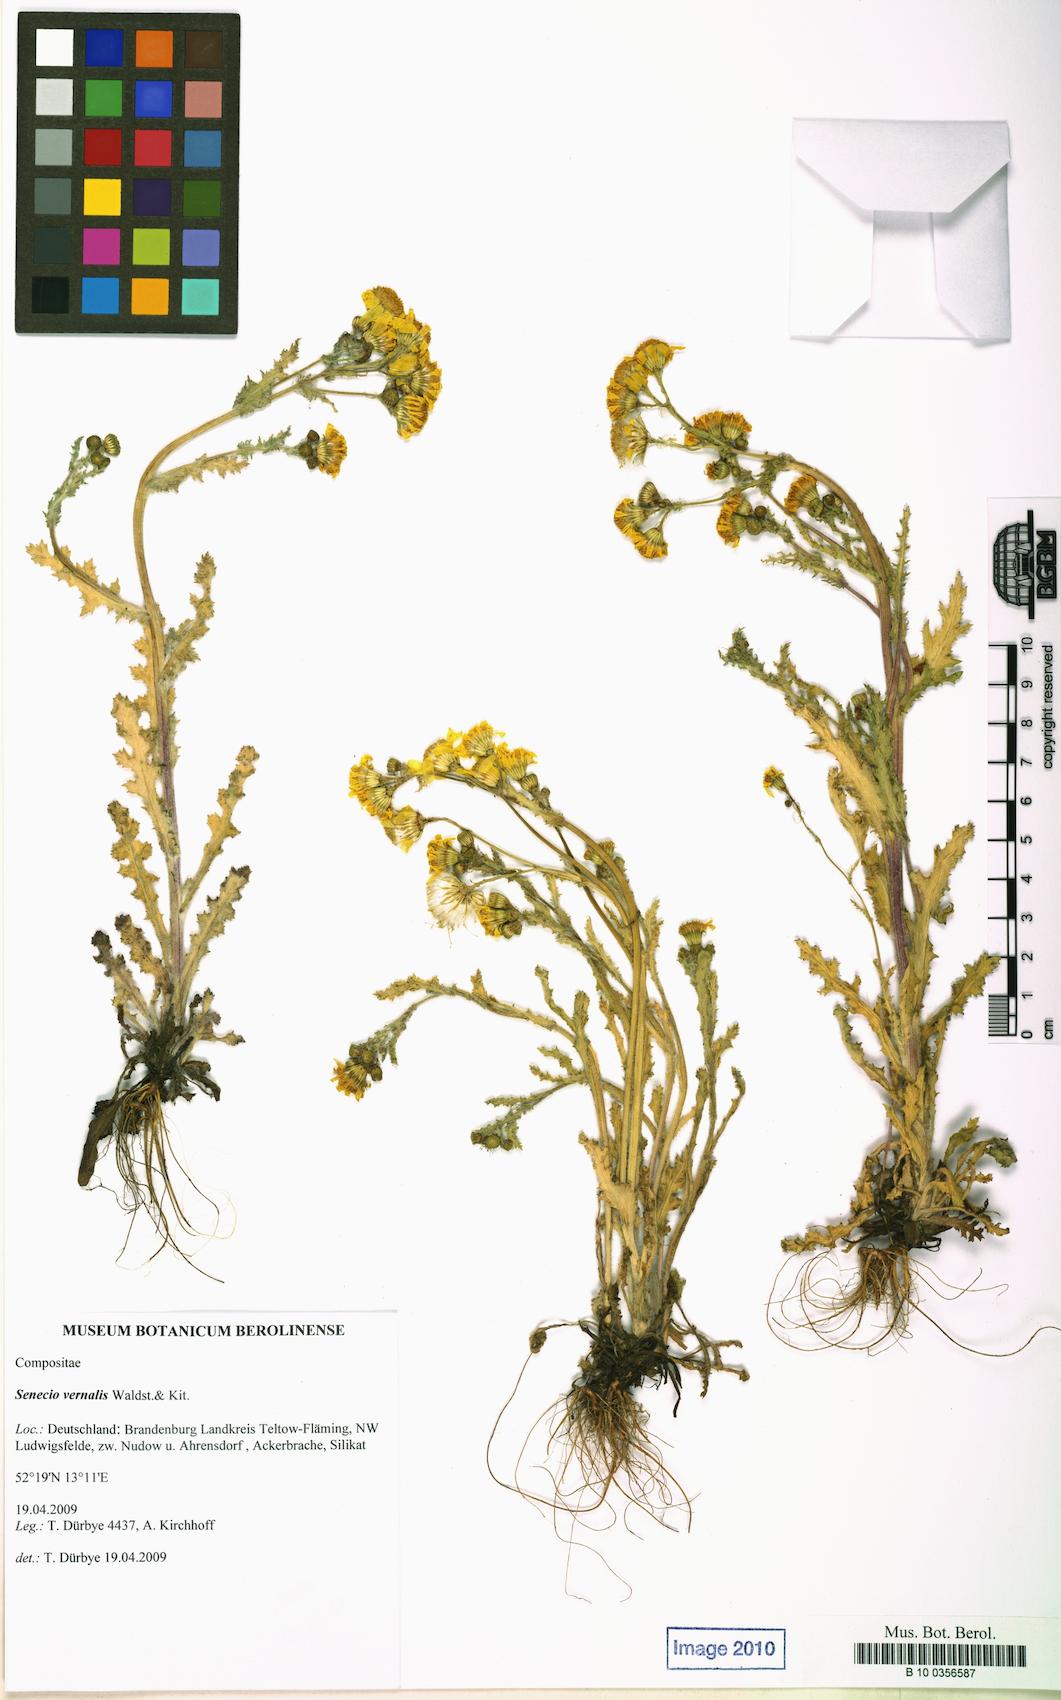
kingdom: Plantae
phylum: Tracheophyta
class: Magnoliopsida
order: Asterales
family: Asteraceae
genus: Senecio
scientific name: Senecio vernalis
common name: Eastern groundsel
